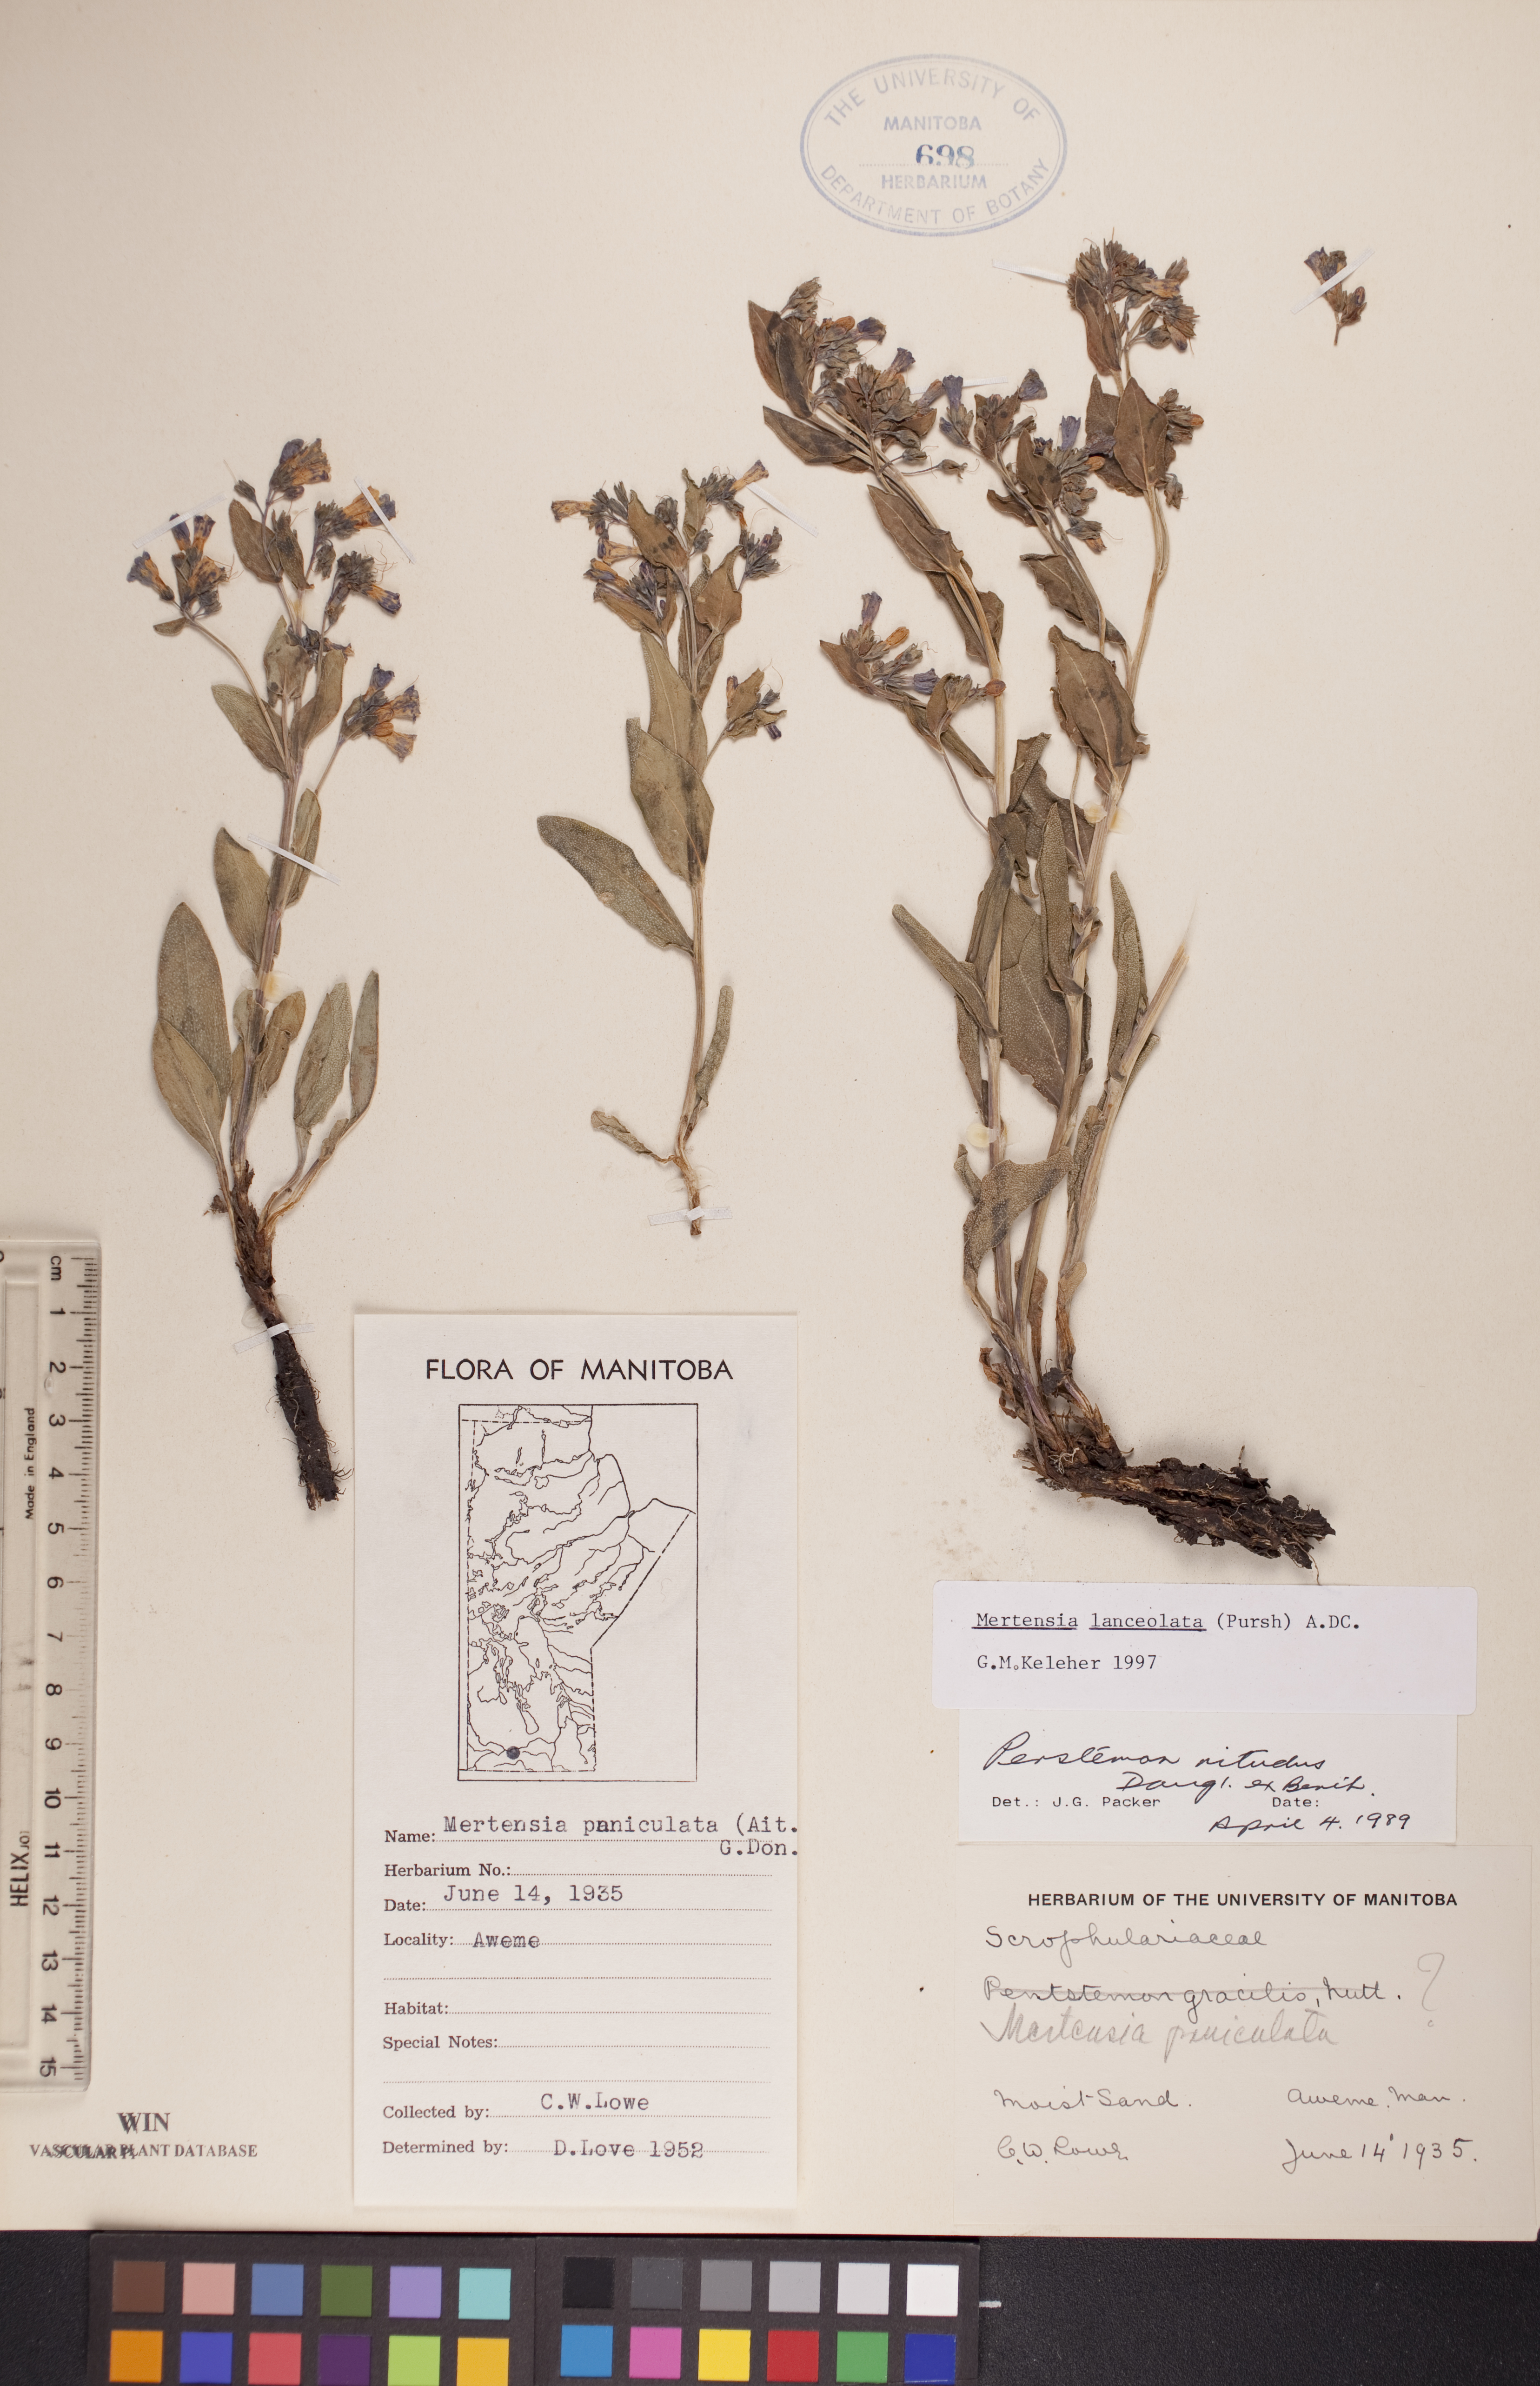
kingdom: Plantae
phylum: Tracheophyta
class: Magnoliopsida
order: Boraginales
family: Boraginaceae
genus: Mertensia
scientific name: Mertensia lanceolata
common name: Lance-leaved bluebells
